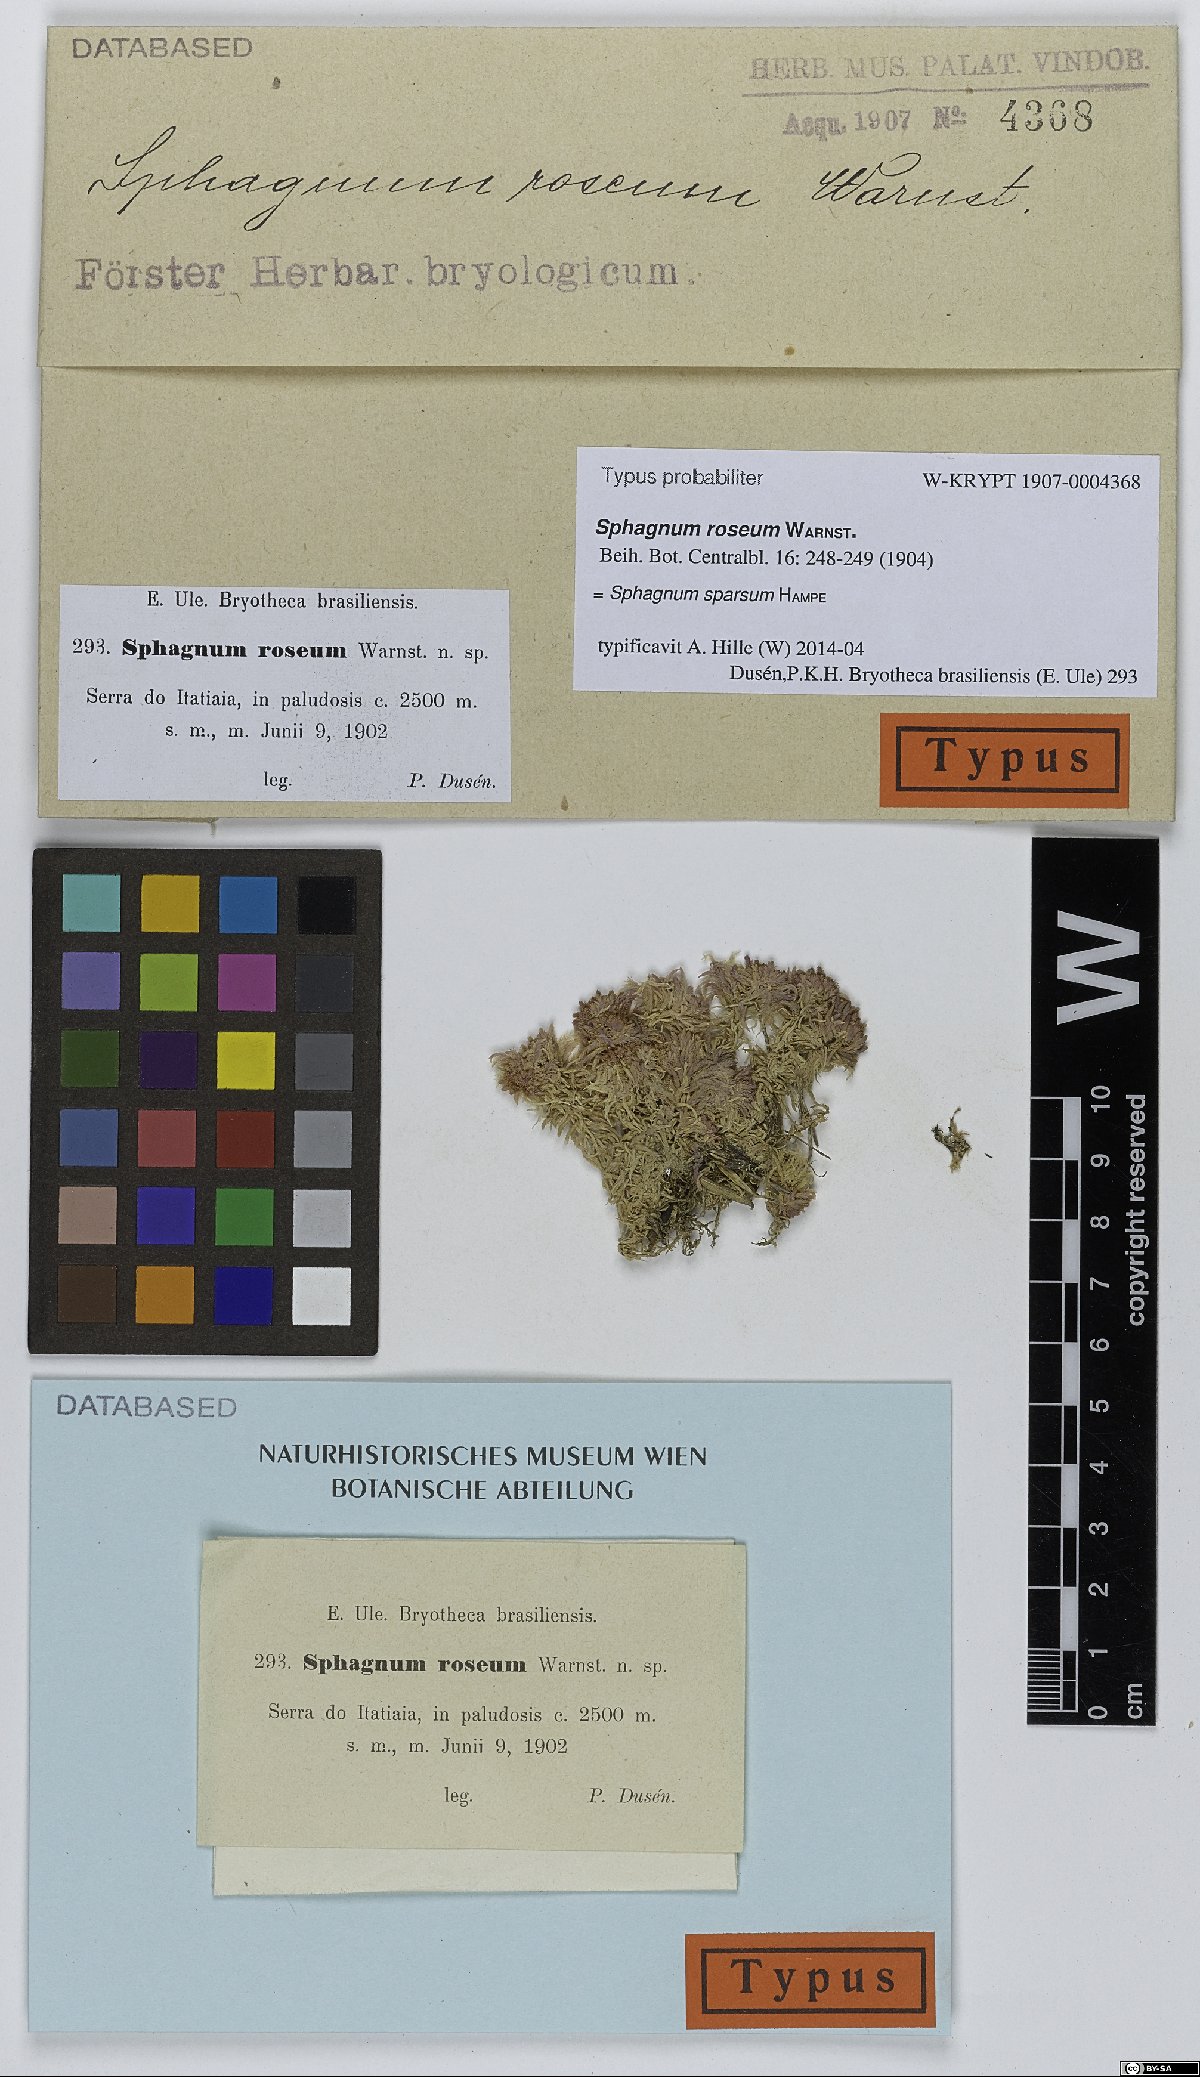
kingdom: Plantae
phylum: Bryophyta
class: Sphagnopsida
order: Sphagnales
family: Sphagnaceae
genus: Sphagnum
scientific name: Sphagnum sparsum
